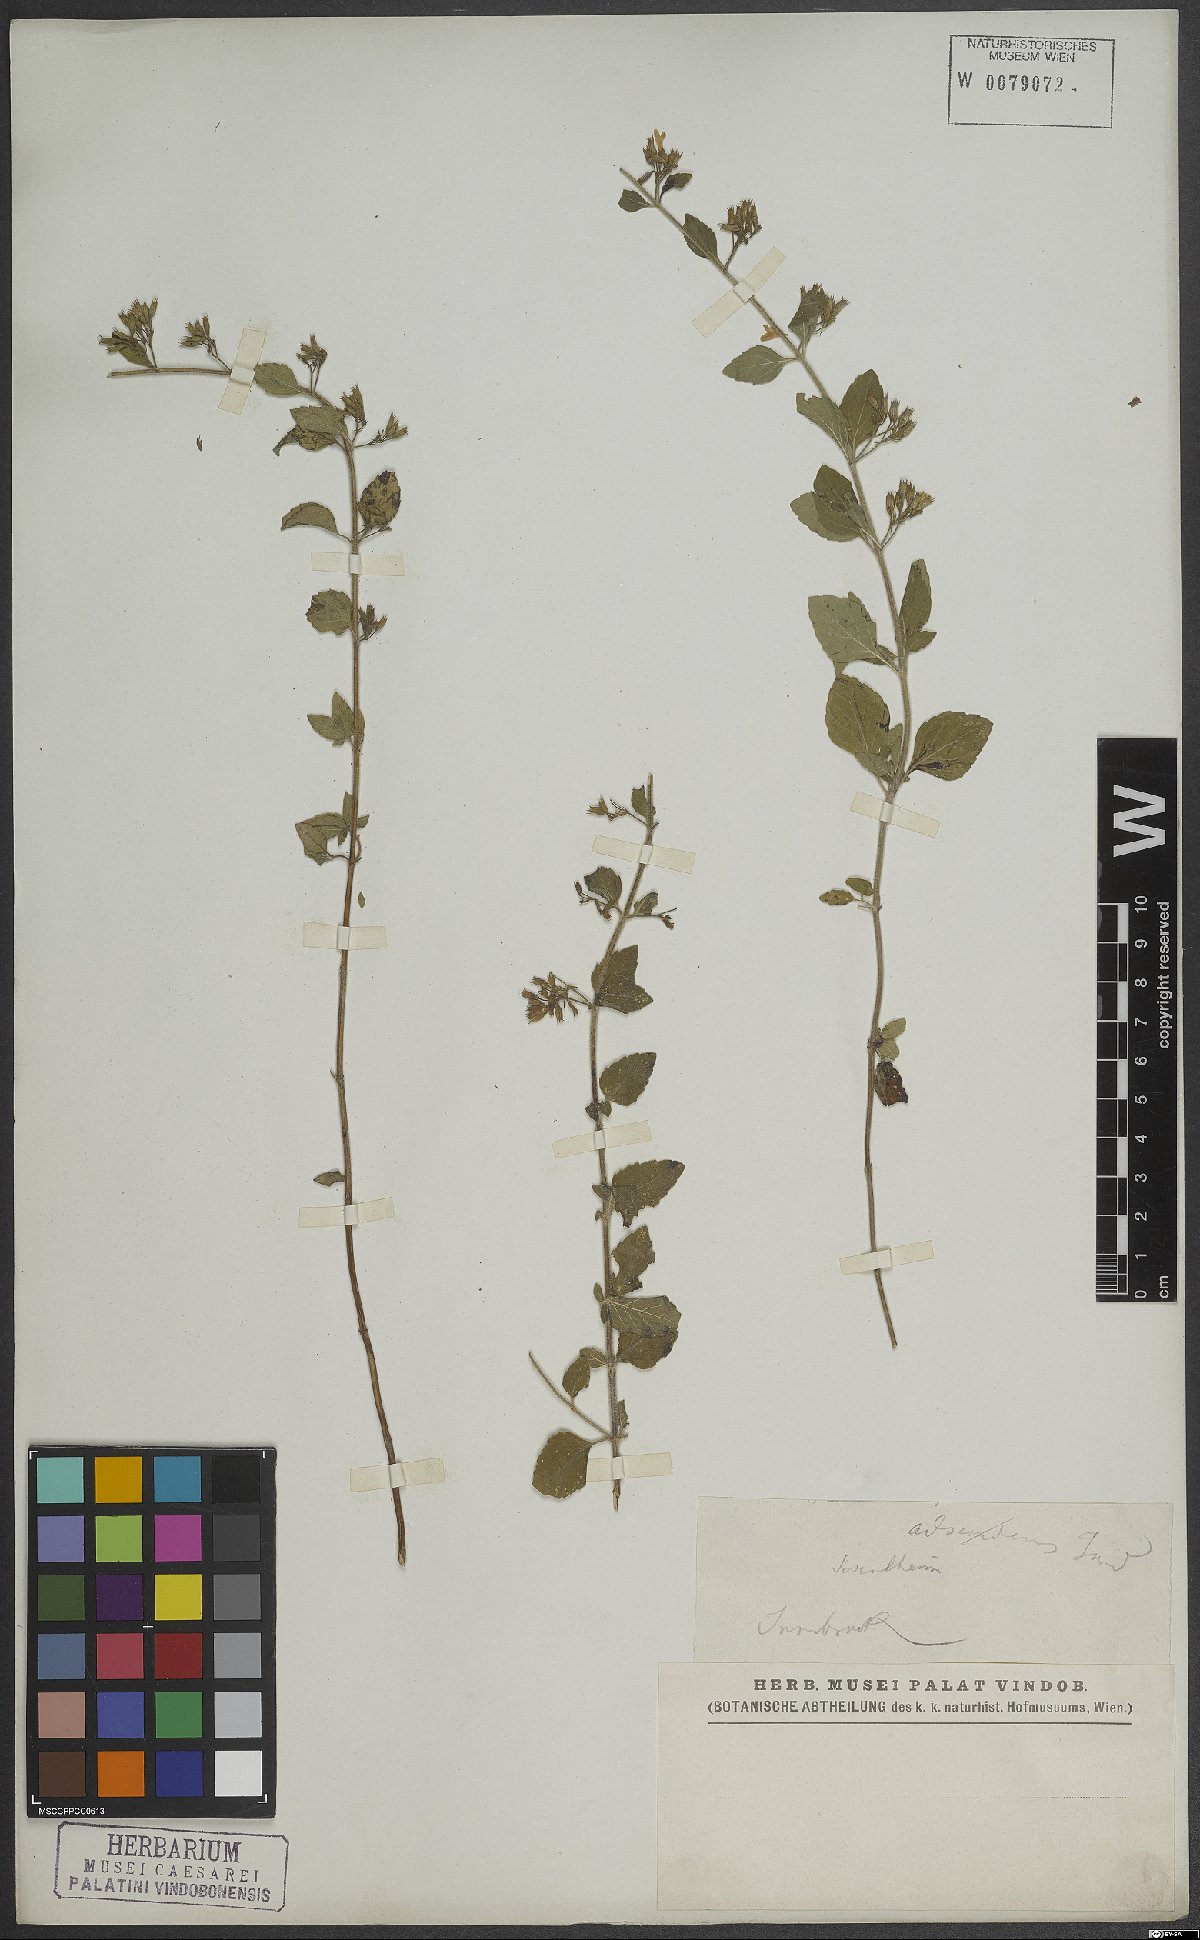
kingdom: Plantae
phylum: Tracheophyta
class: Magnoliopsida
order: Lamiales
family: Lamiaceae
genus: Calamintha
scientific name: Calamintha
